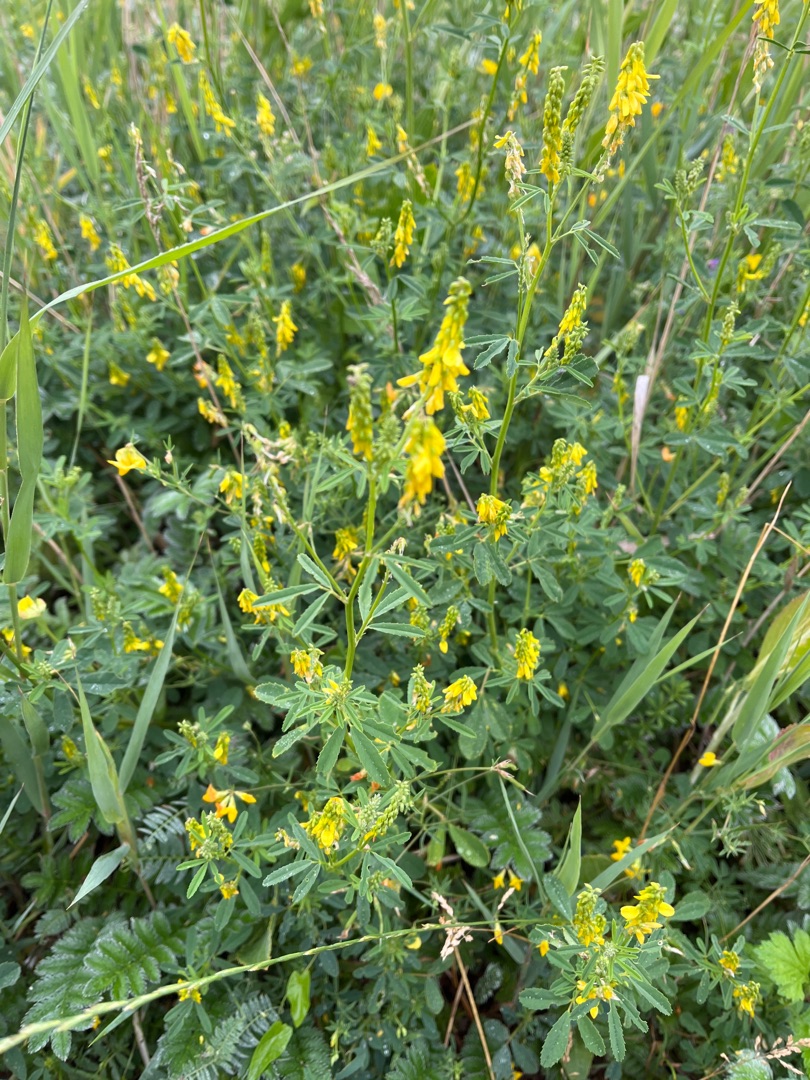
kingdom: Plantae
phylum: Tracheophyta
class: Magnoliopsida
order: Fabales
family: Fabaceae
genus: Melilotus
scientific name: Melilotus
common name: Stenkløverslægten
